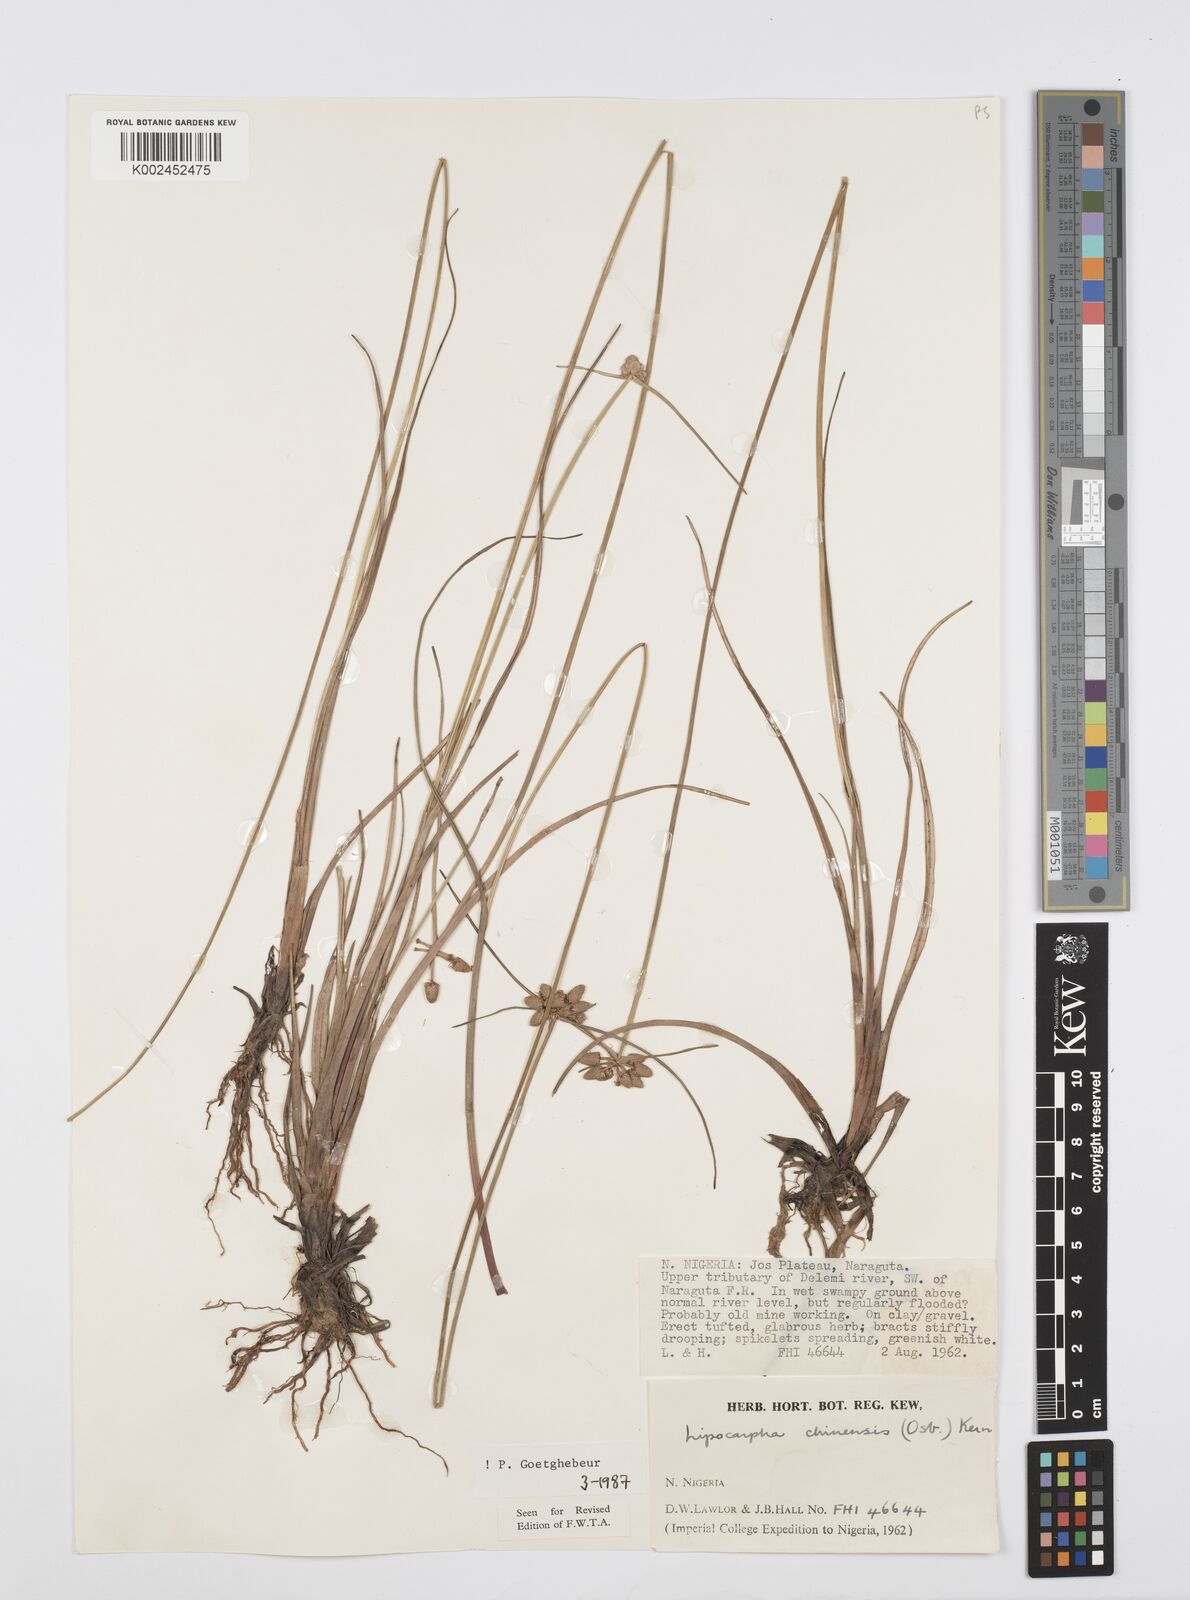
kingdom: Plantae
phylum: Tracheophyta
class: Liliopsida
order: Poales
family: Cyperaceae
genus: Cyperus
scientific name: Cyperus albescens
